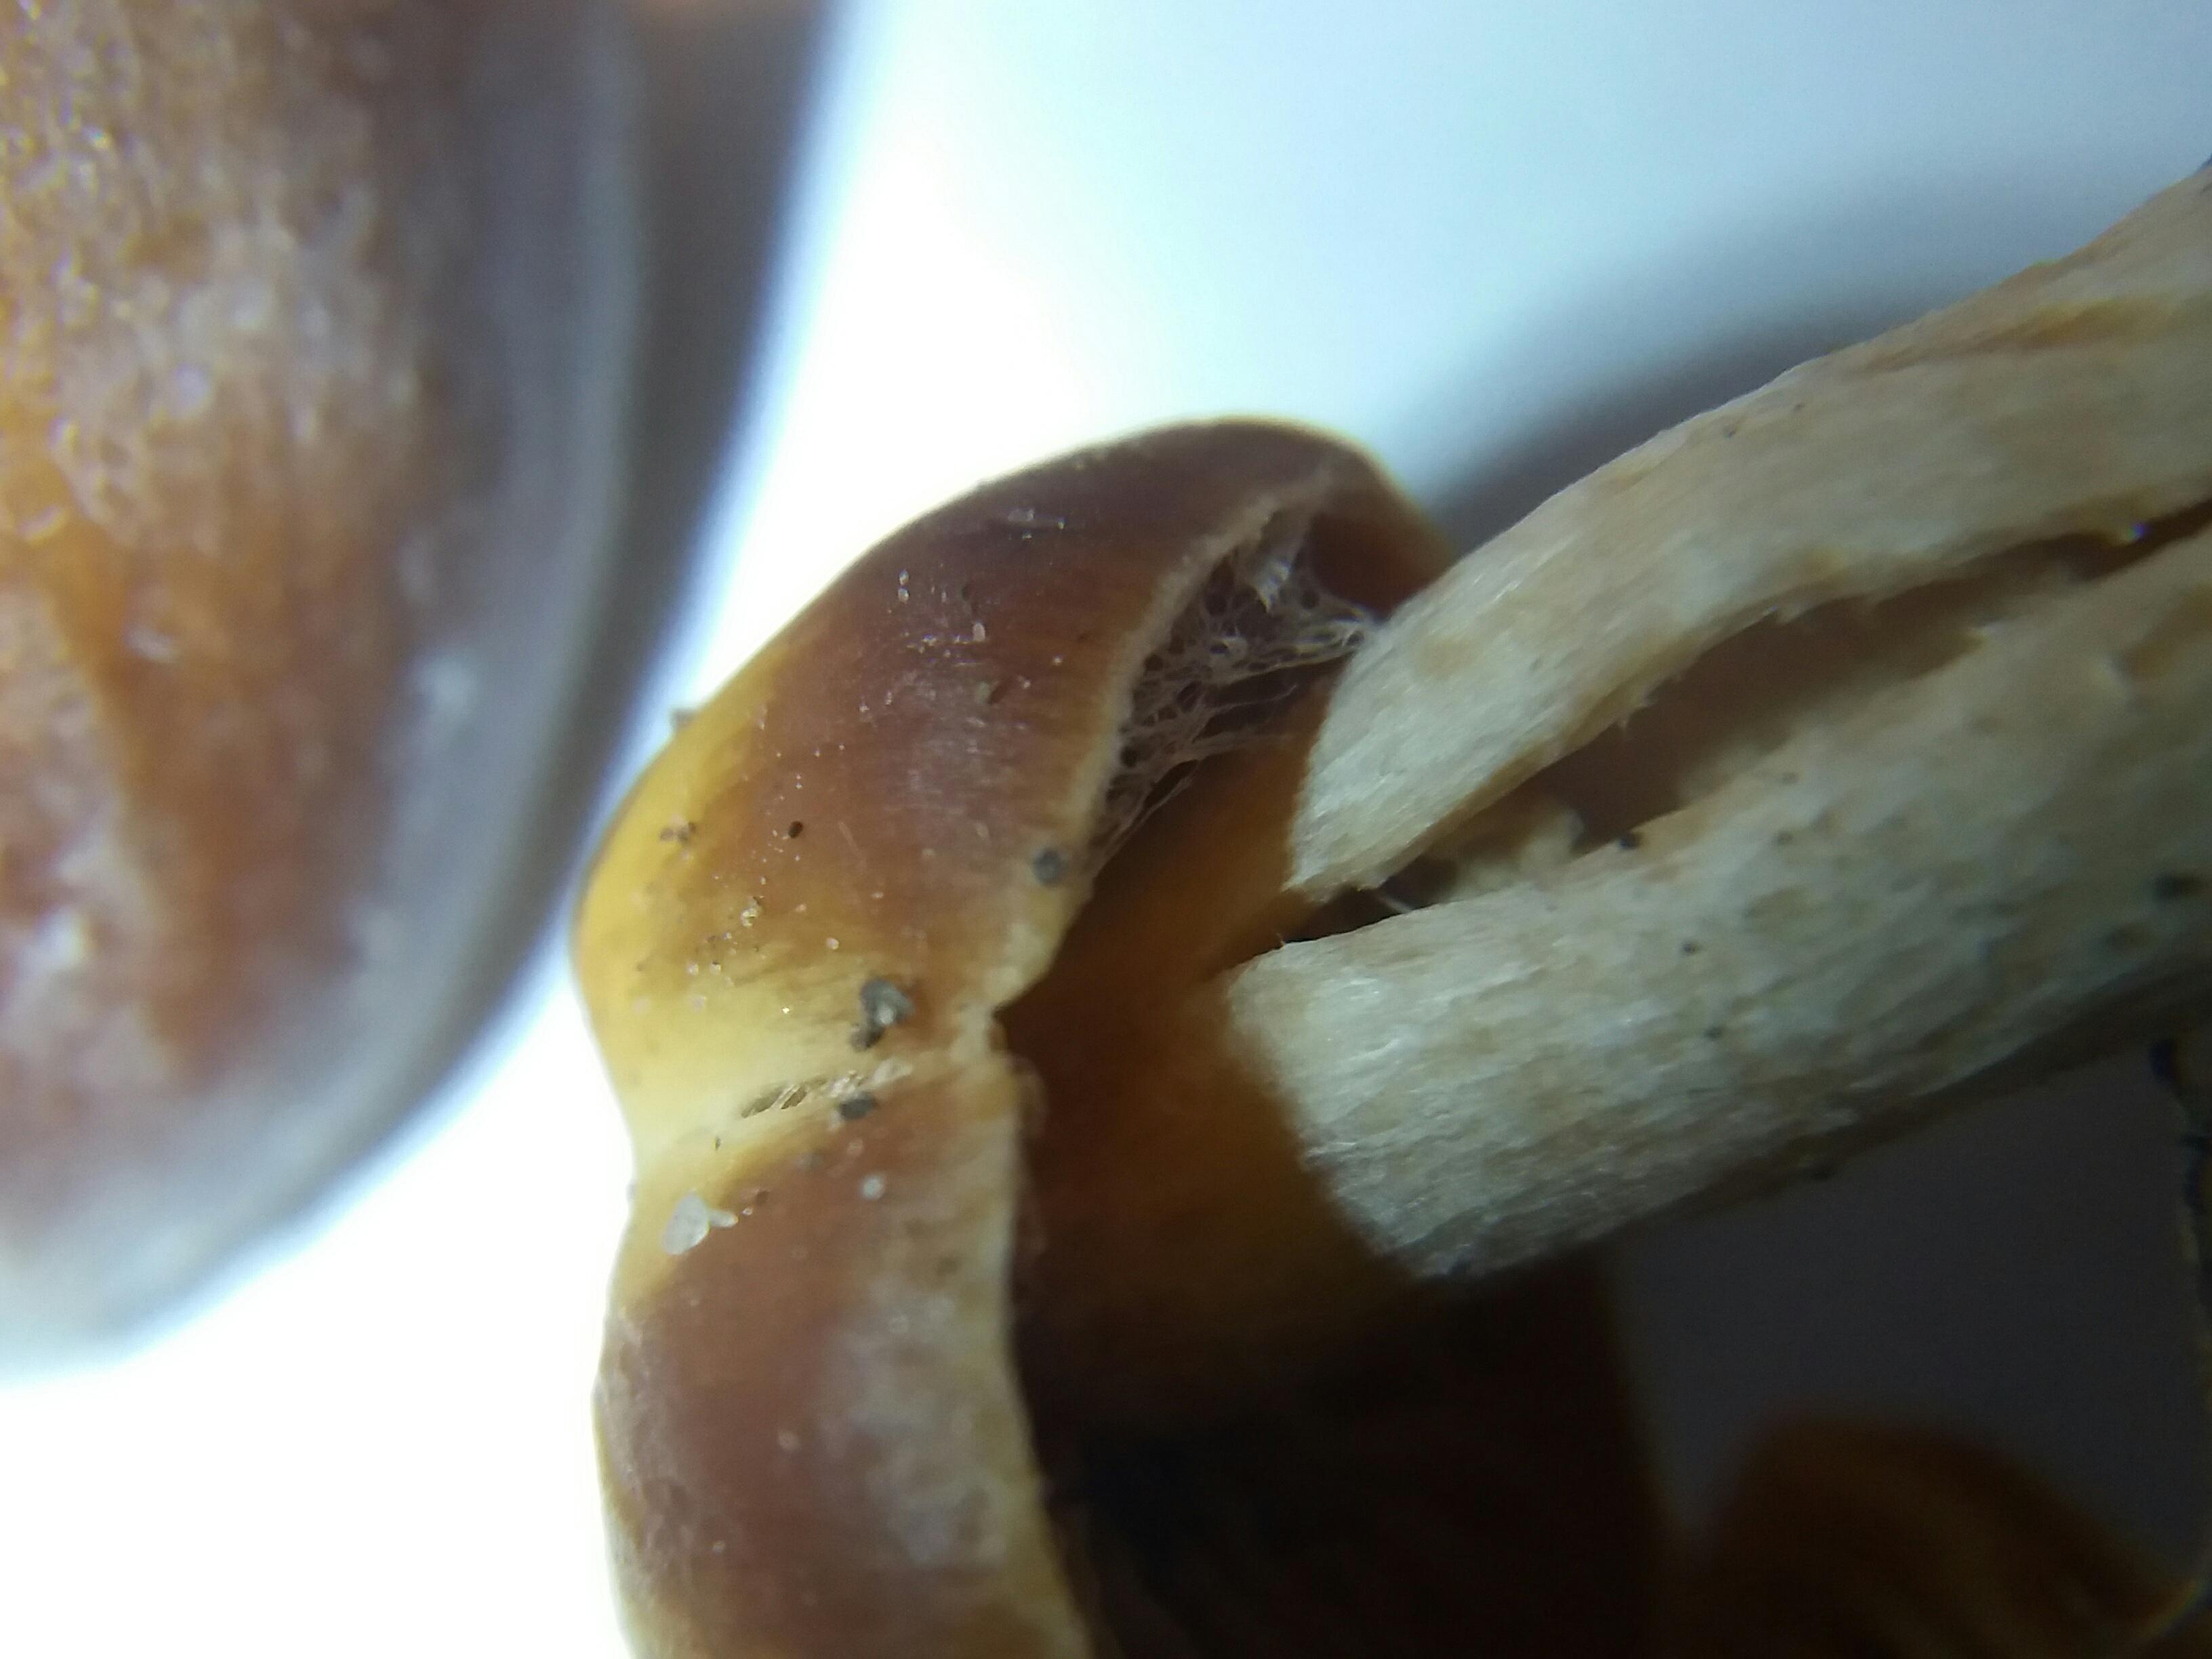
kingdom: Fungi
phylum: Basidiomycota
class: Agaricomycetes
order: Agaricales
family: Cortinariaceae
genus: Cortinarius
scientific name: Cortinarius
